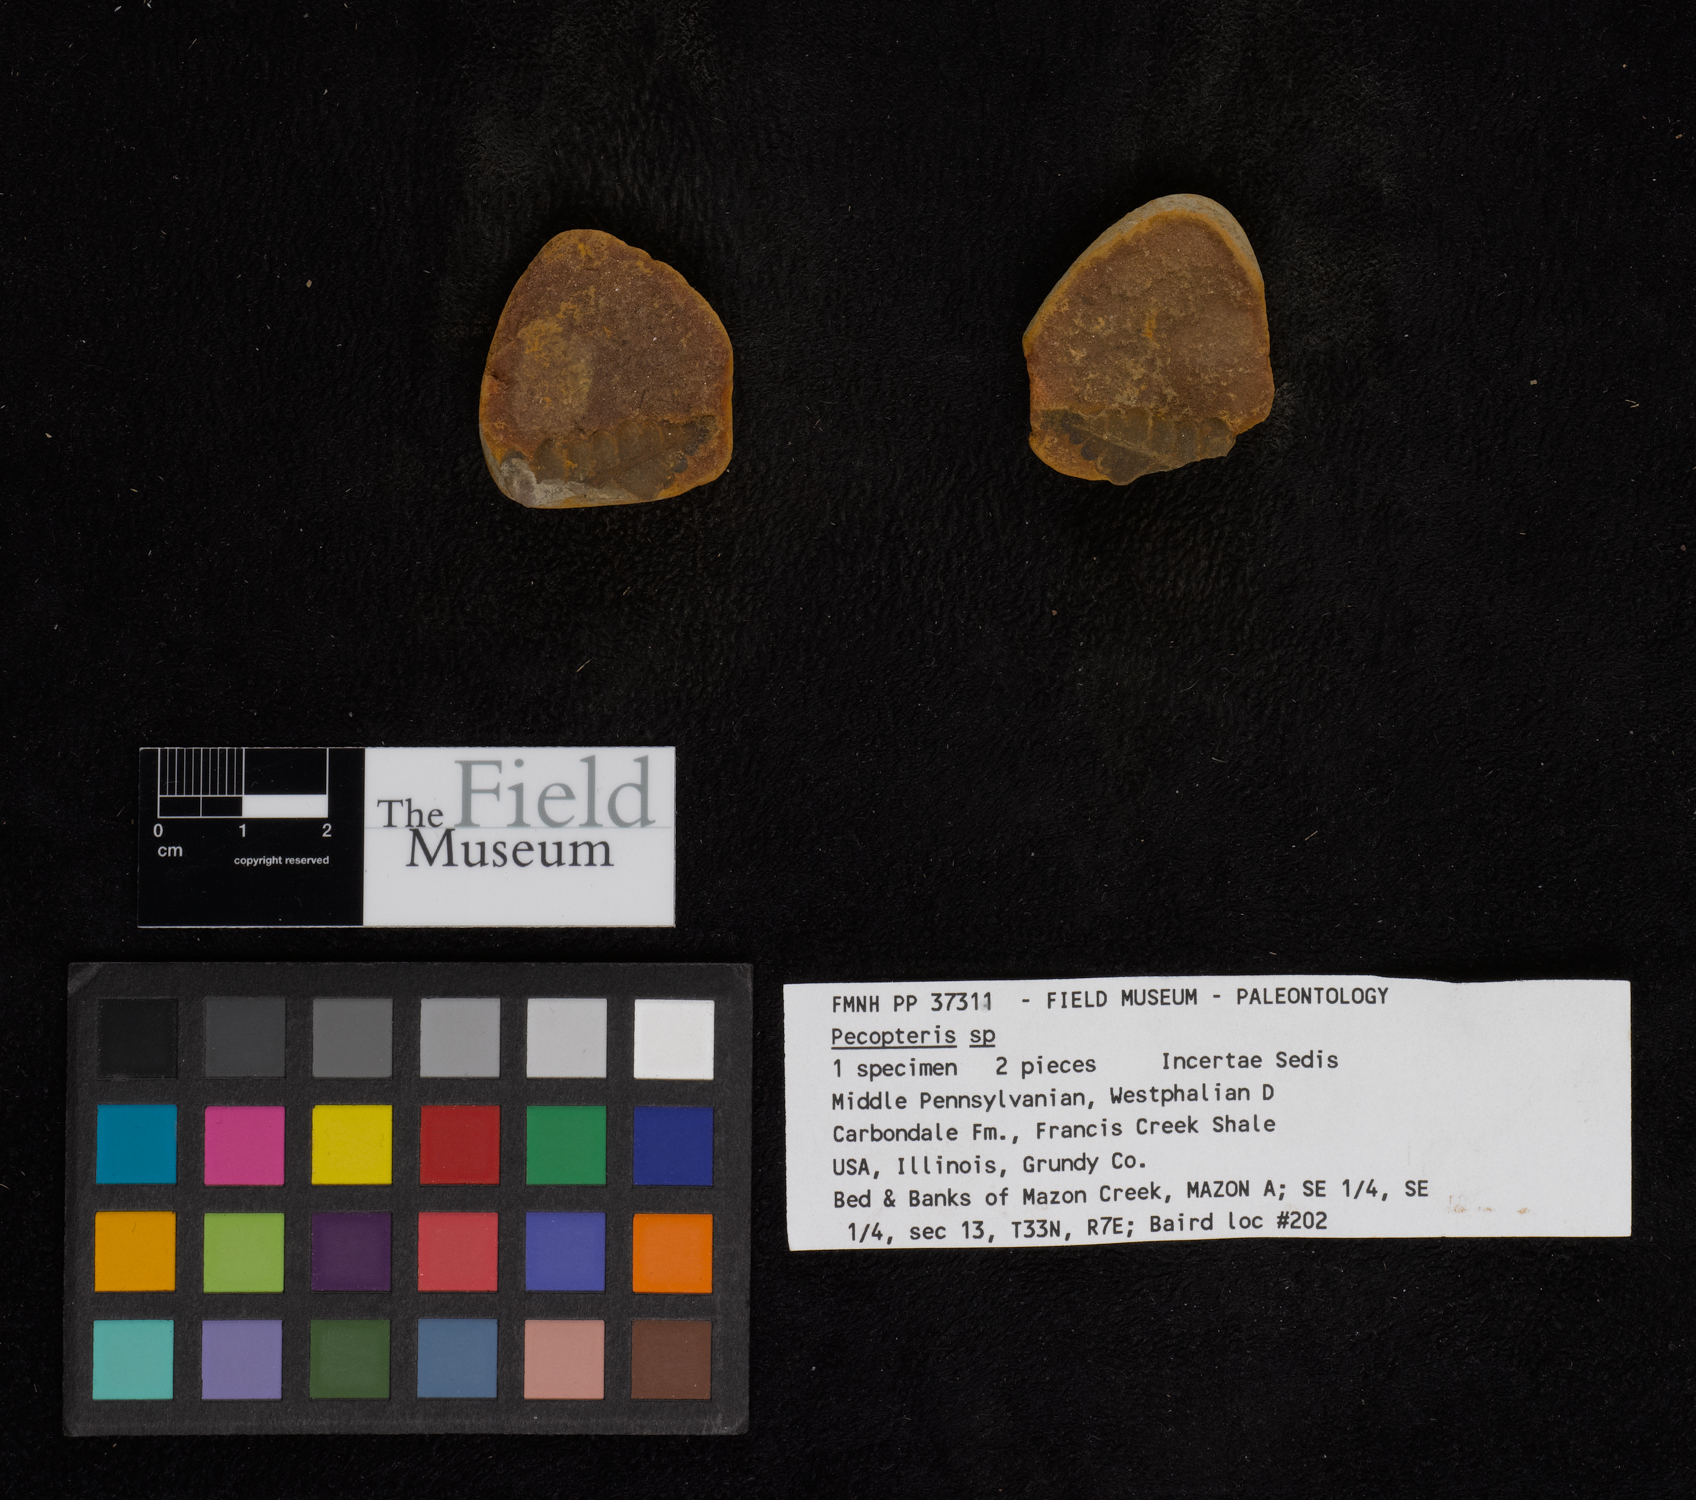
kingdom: Plantae
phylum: Tracheophyta
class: Polypodiopsida
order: Marattiales
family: Asterothecaceae
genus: Pecopteris
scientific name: Pecopteris
